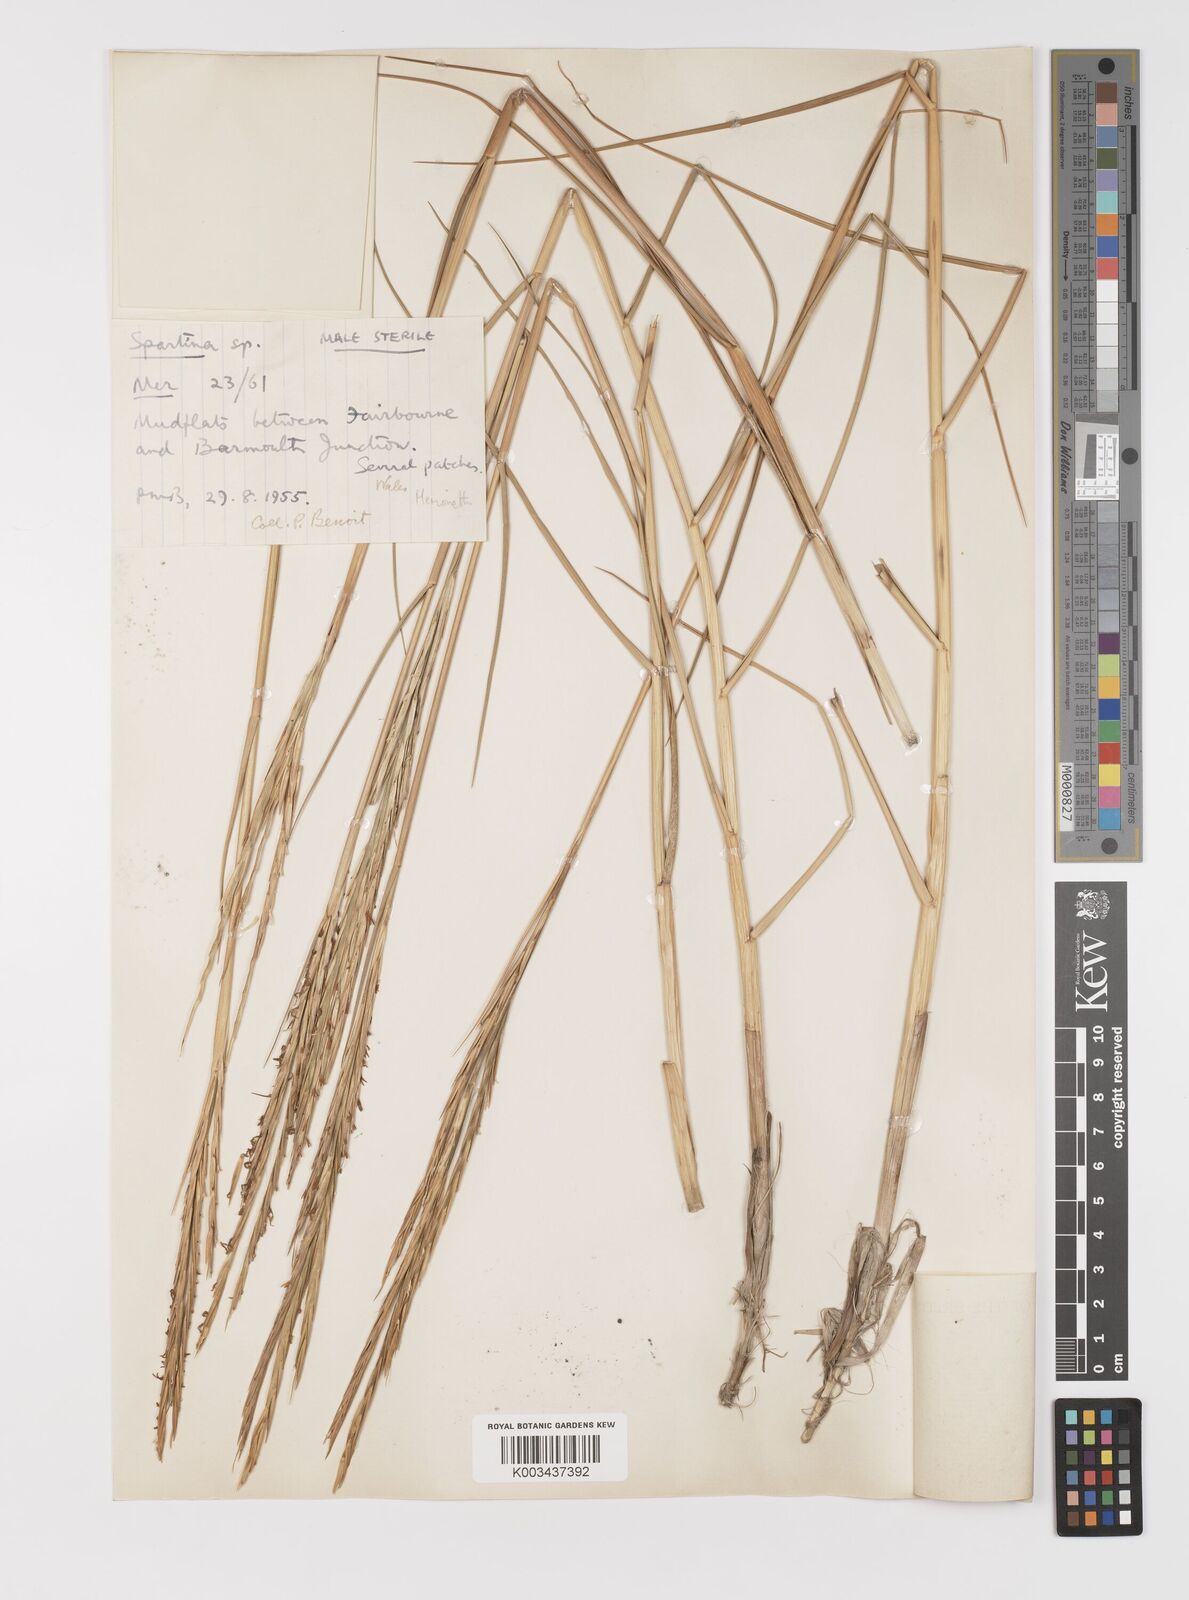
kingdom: Plantae
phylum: Tracheophyta
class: Liliopsida
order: Poales
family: Poaceae
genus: Sporobolus
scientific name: Sporobolus townsendii
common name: Townsend's cordgrass
